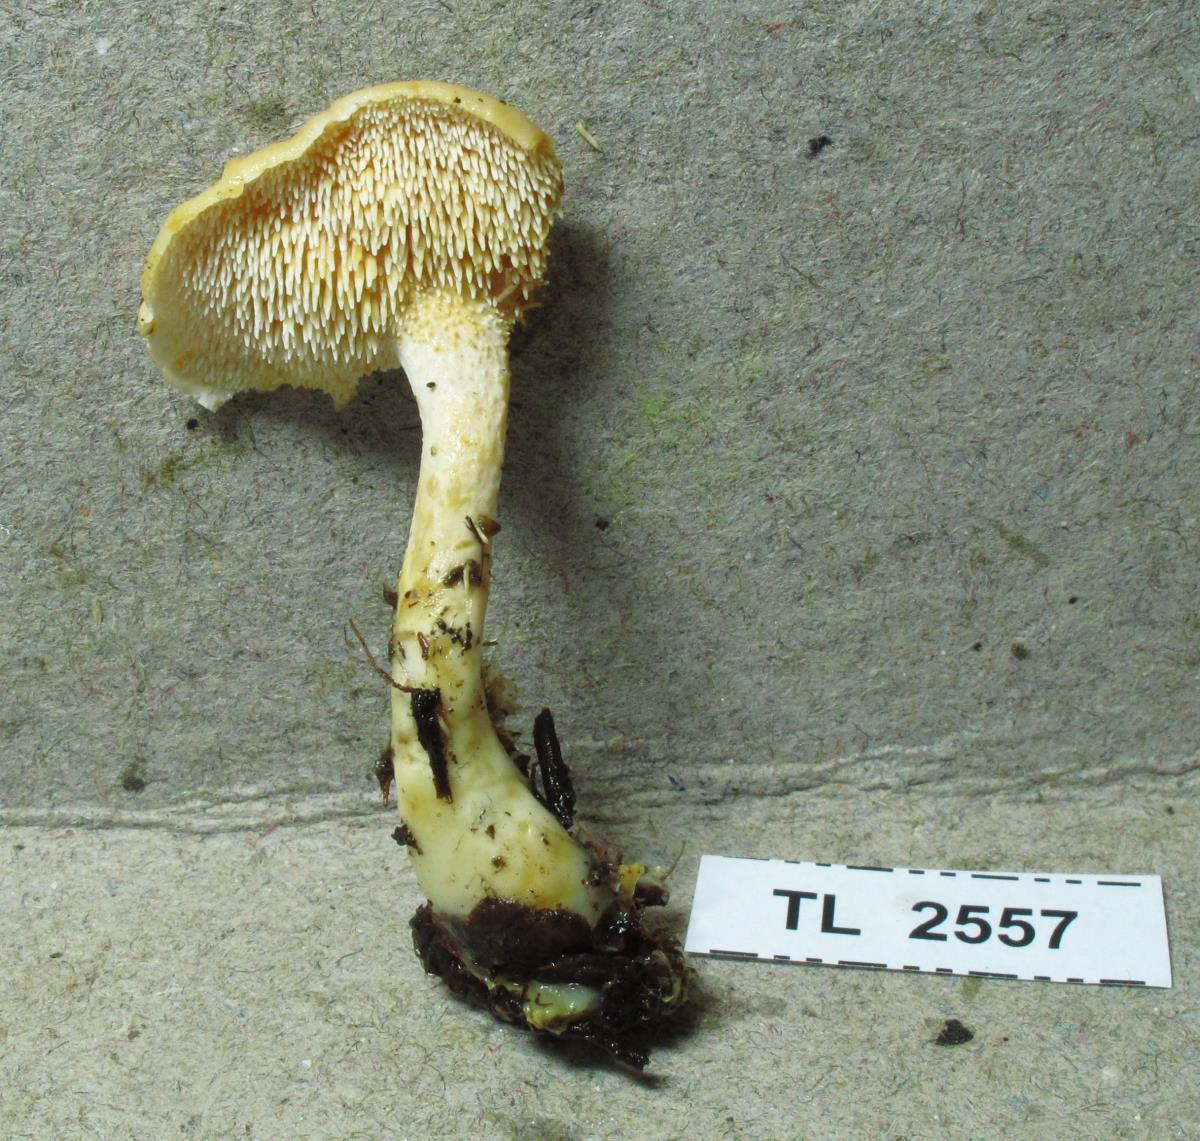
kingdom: Fungi
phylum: Basidiomycota
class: Agaricomycetes
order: Cantharellales
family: Hydnaceae
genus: Hydnum
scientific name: Hydnum
